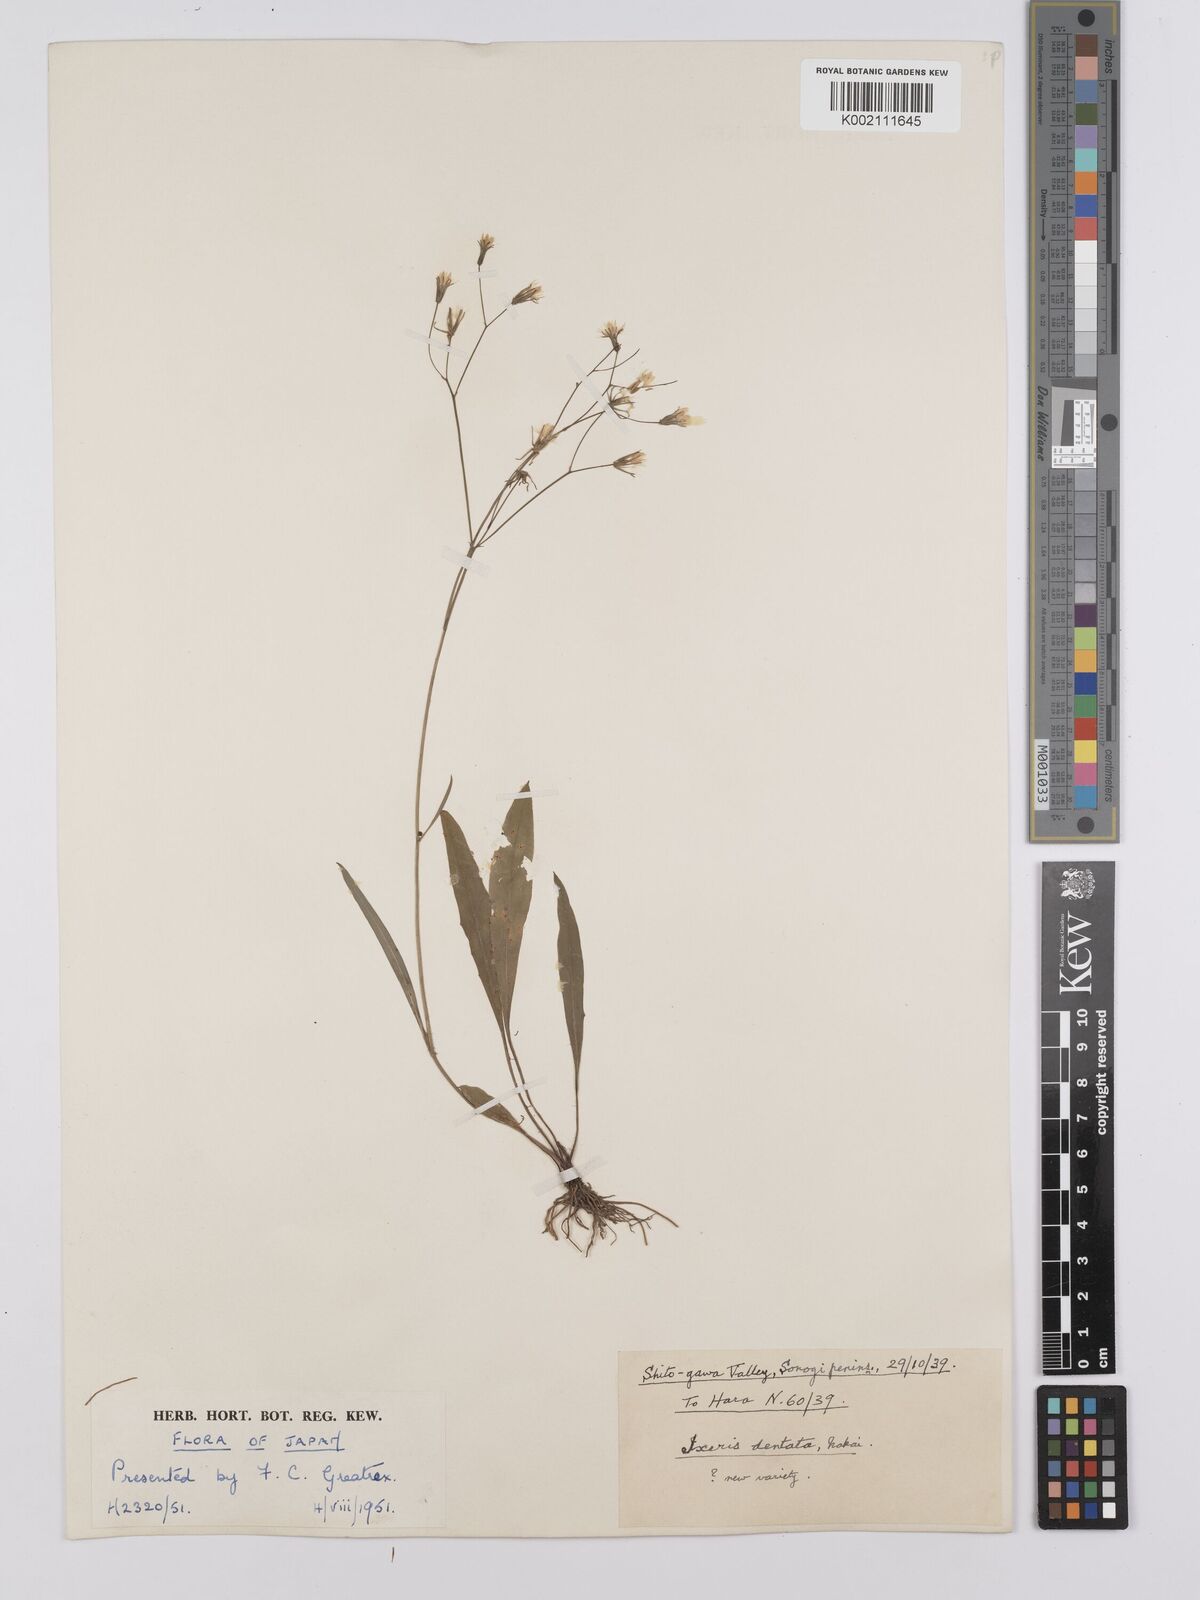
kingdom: Plantae
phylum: Tracheophyta
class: Magnoliopsida
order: Asterales
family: Asteraceae
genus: Ixeridium
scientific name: Ixeridium dentatum
